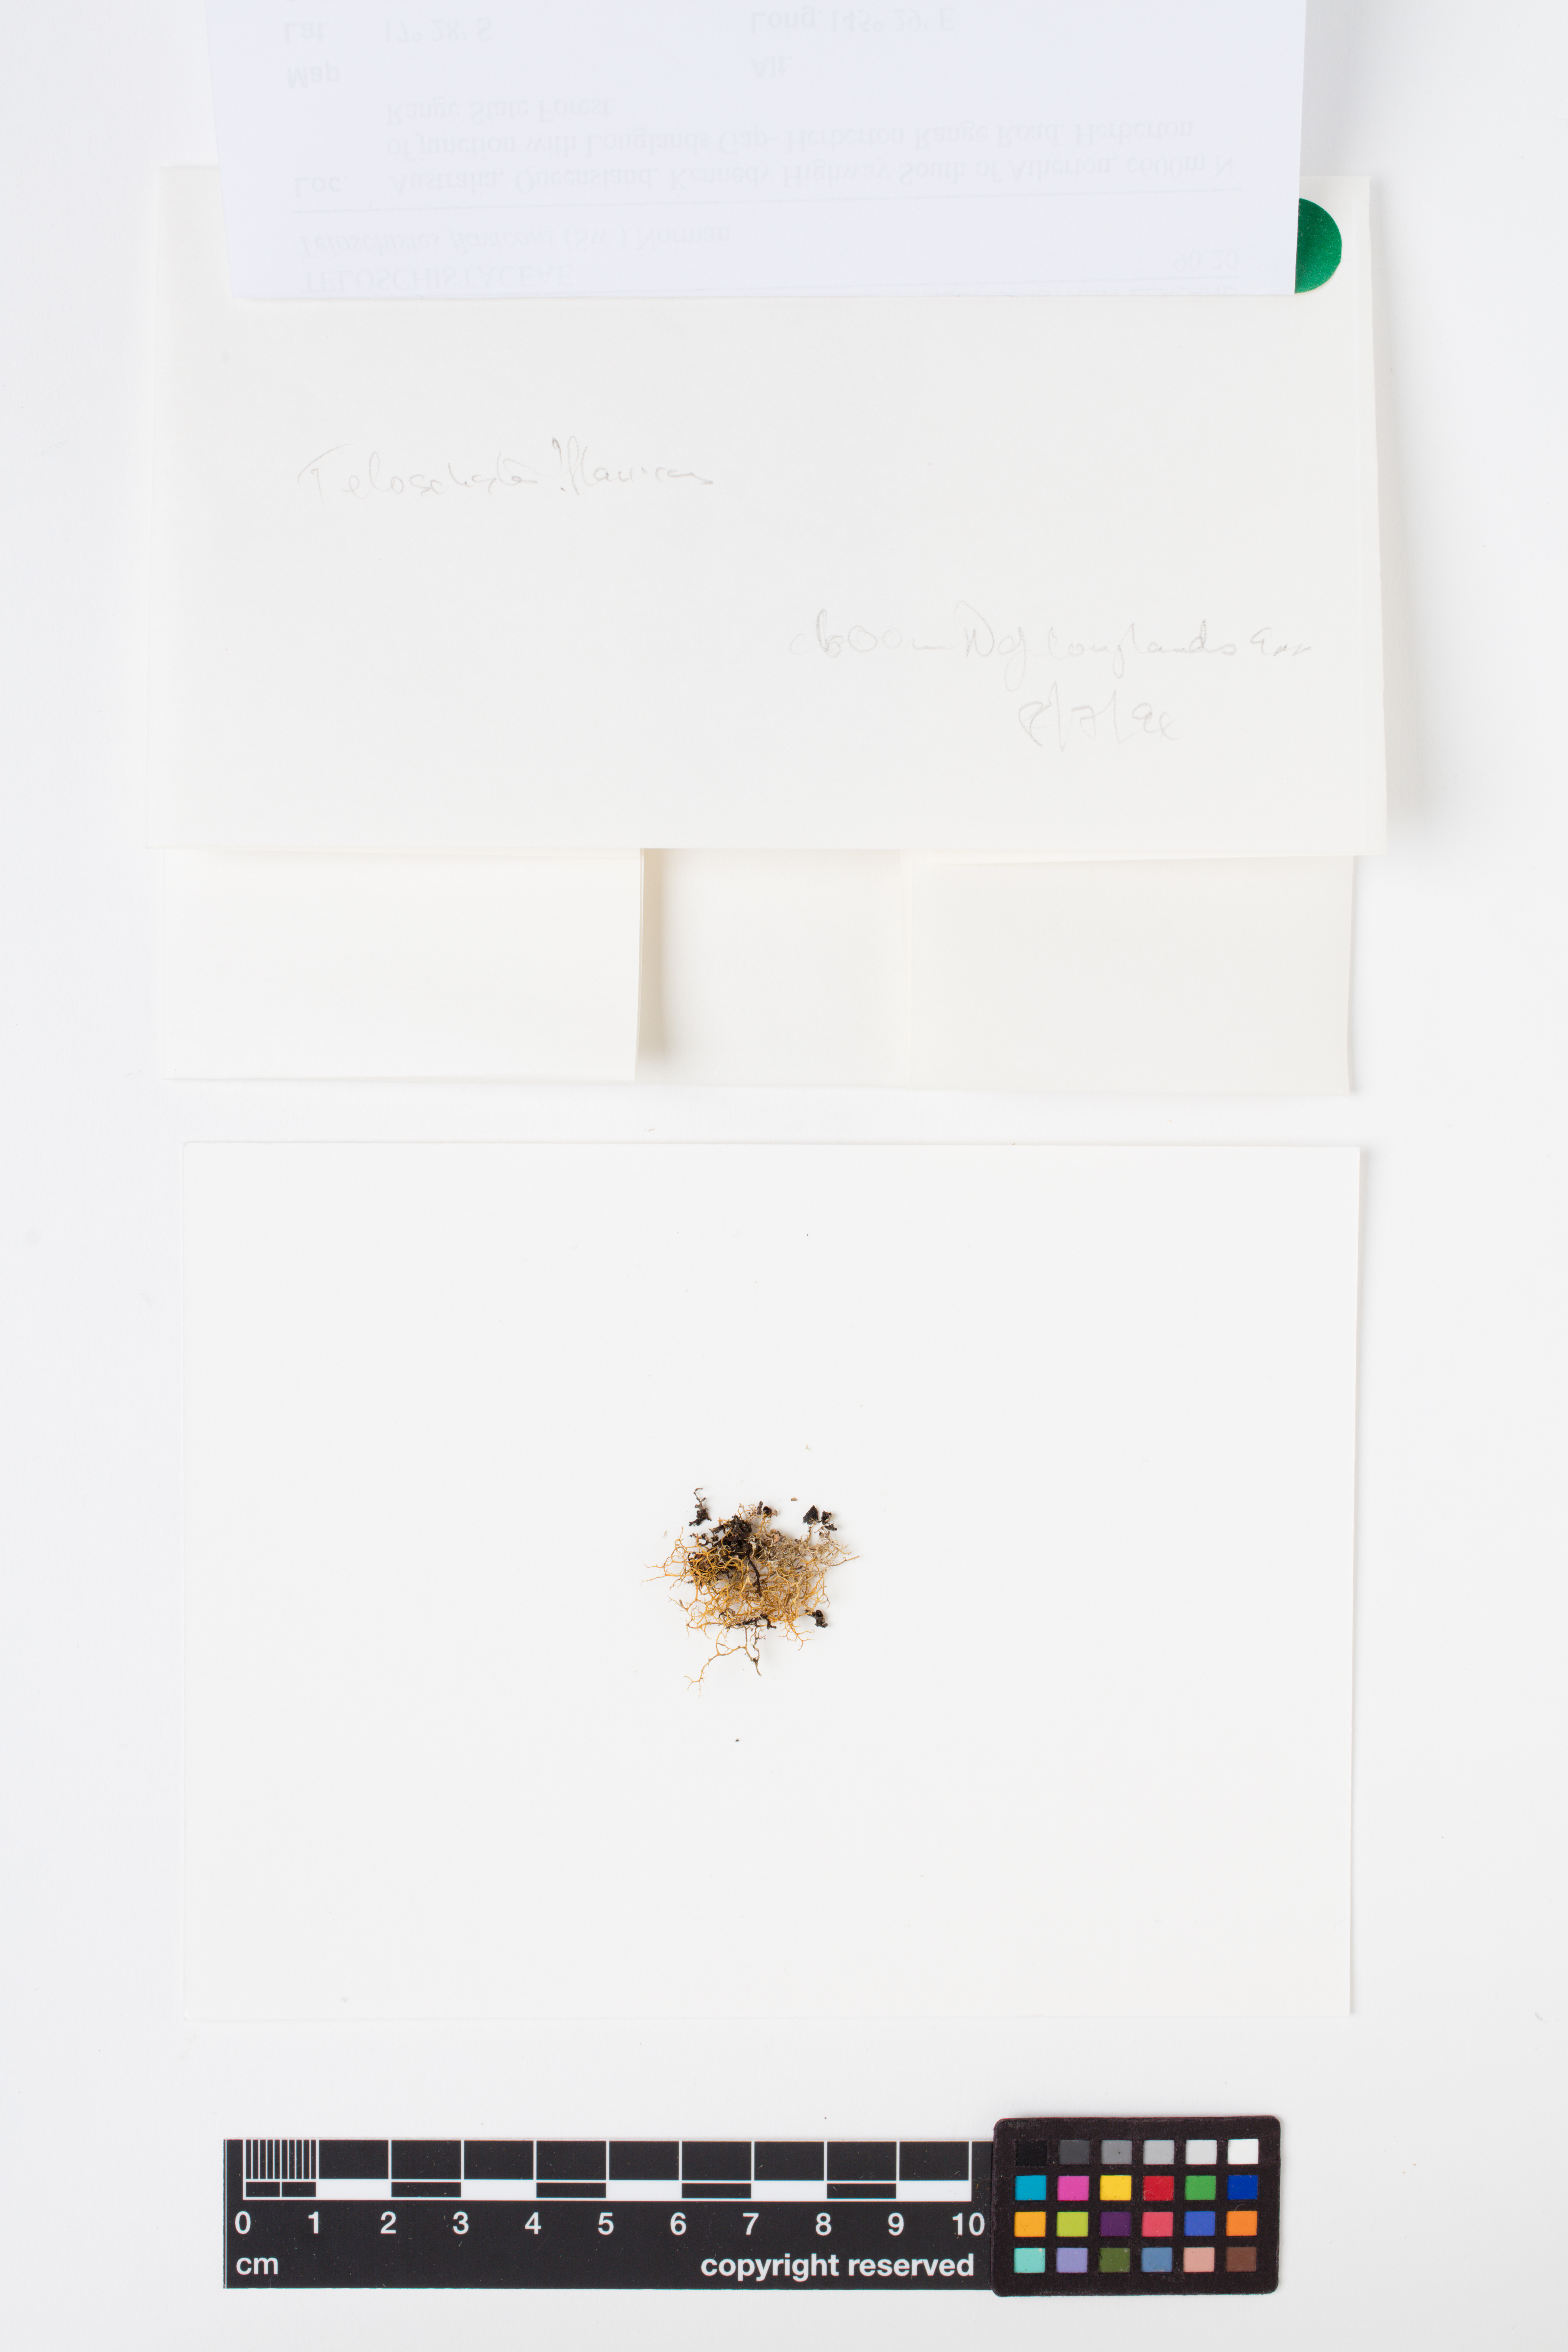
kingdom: Fungi
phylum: Ascomycota
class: Lecanoromycetes
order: Teloschistales
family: Teloschistaceae
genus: Teloschistes
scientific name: Teloschistes flavicans
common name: Golden hair-lichen
